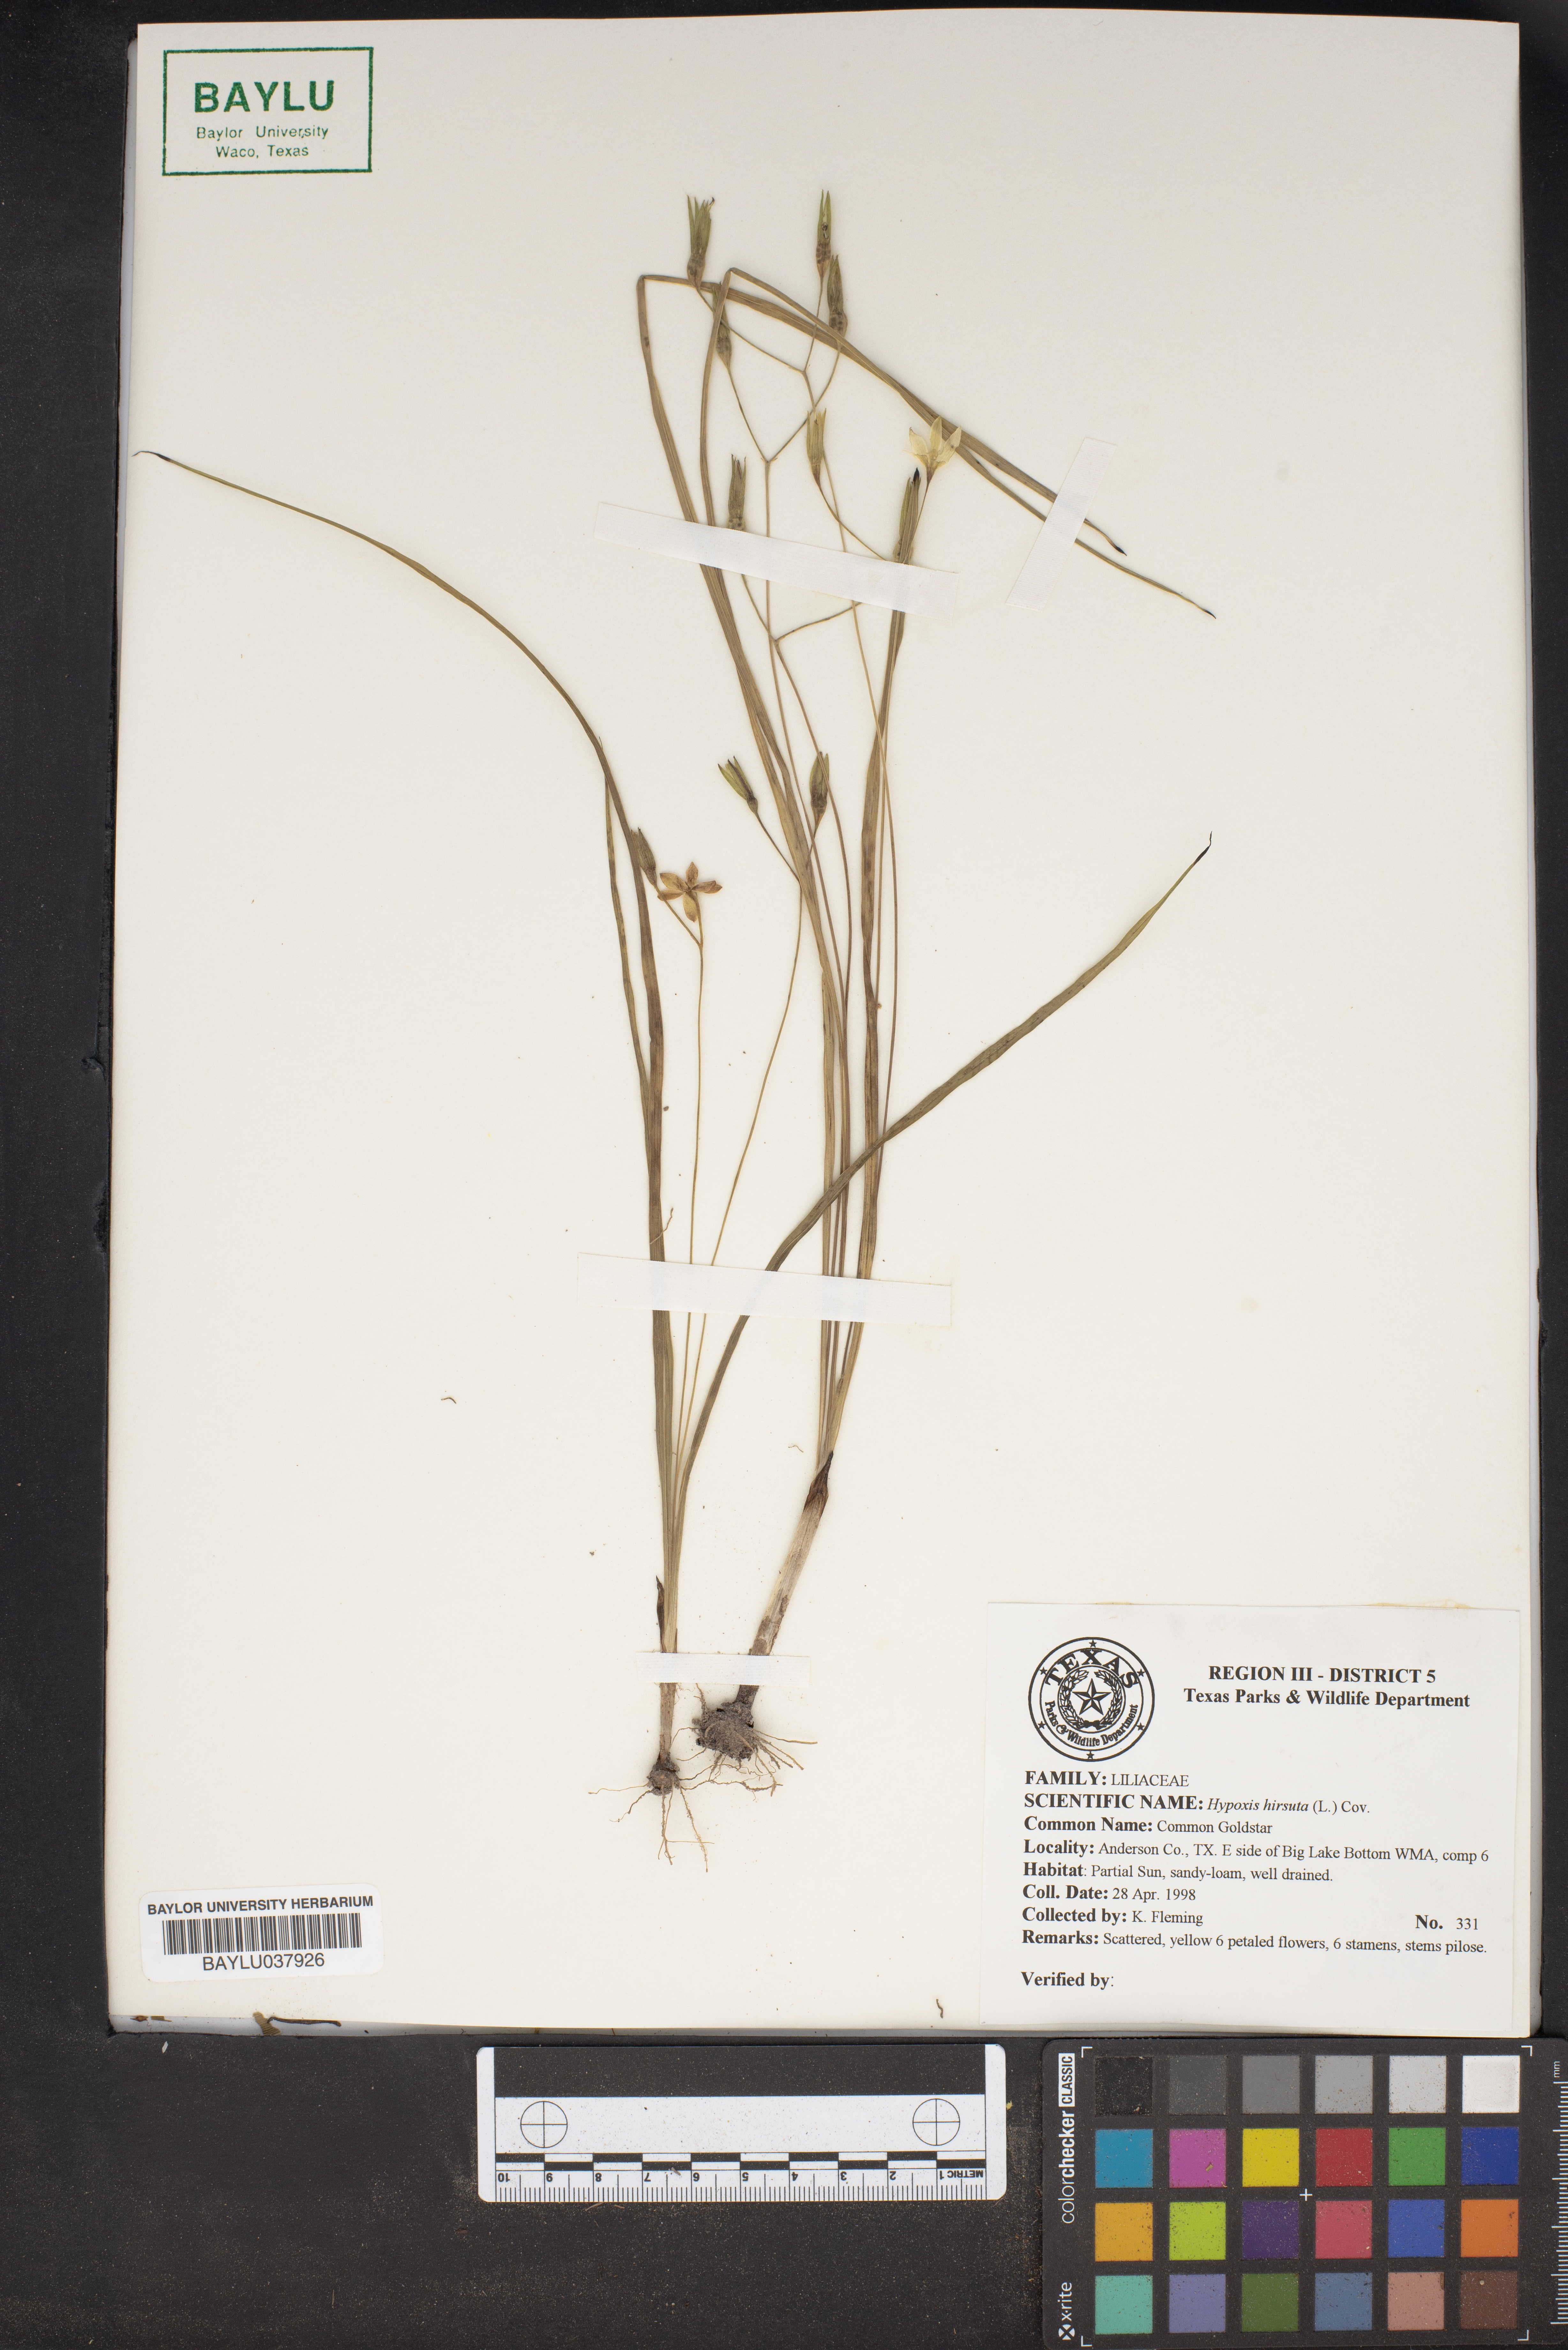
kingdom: Plantae
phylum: Tracheophyta
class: Liliopsida
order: Asparagales
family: Hypoxidaceae
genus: Hypoxis
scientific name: Hypoxis hirsuta
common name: Common goldstar
